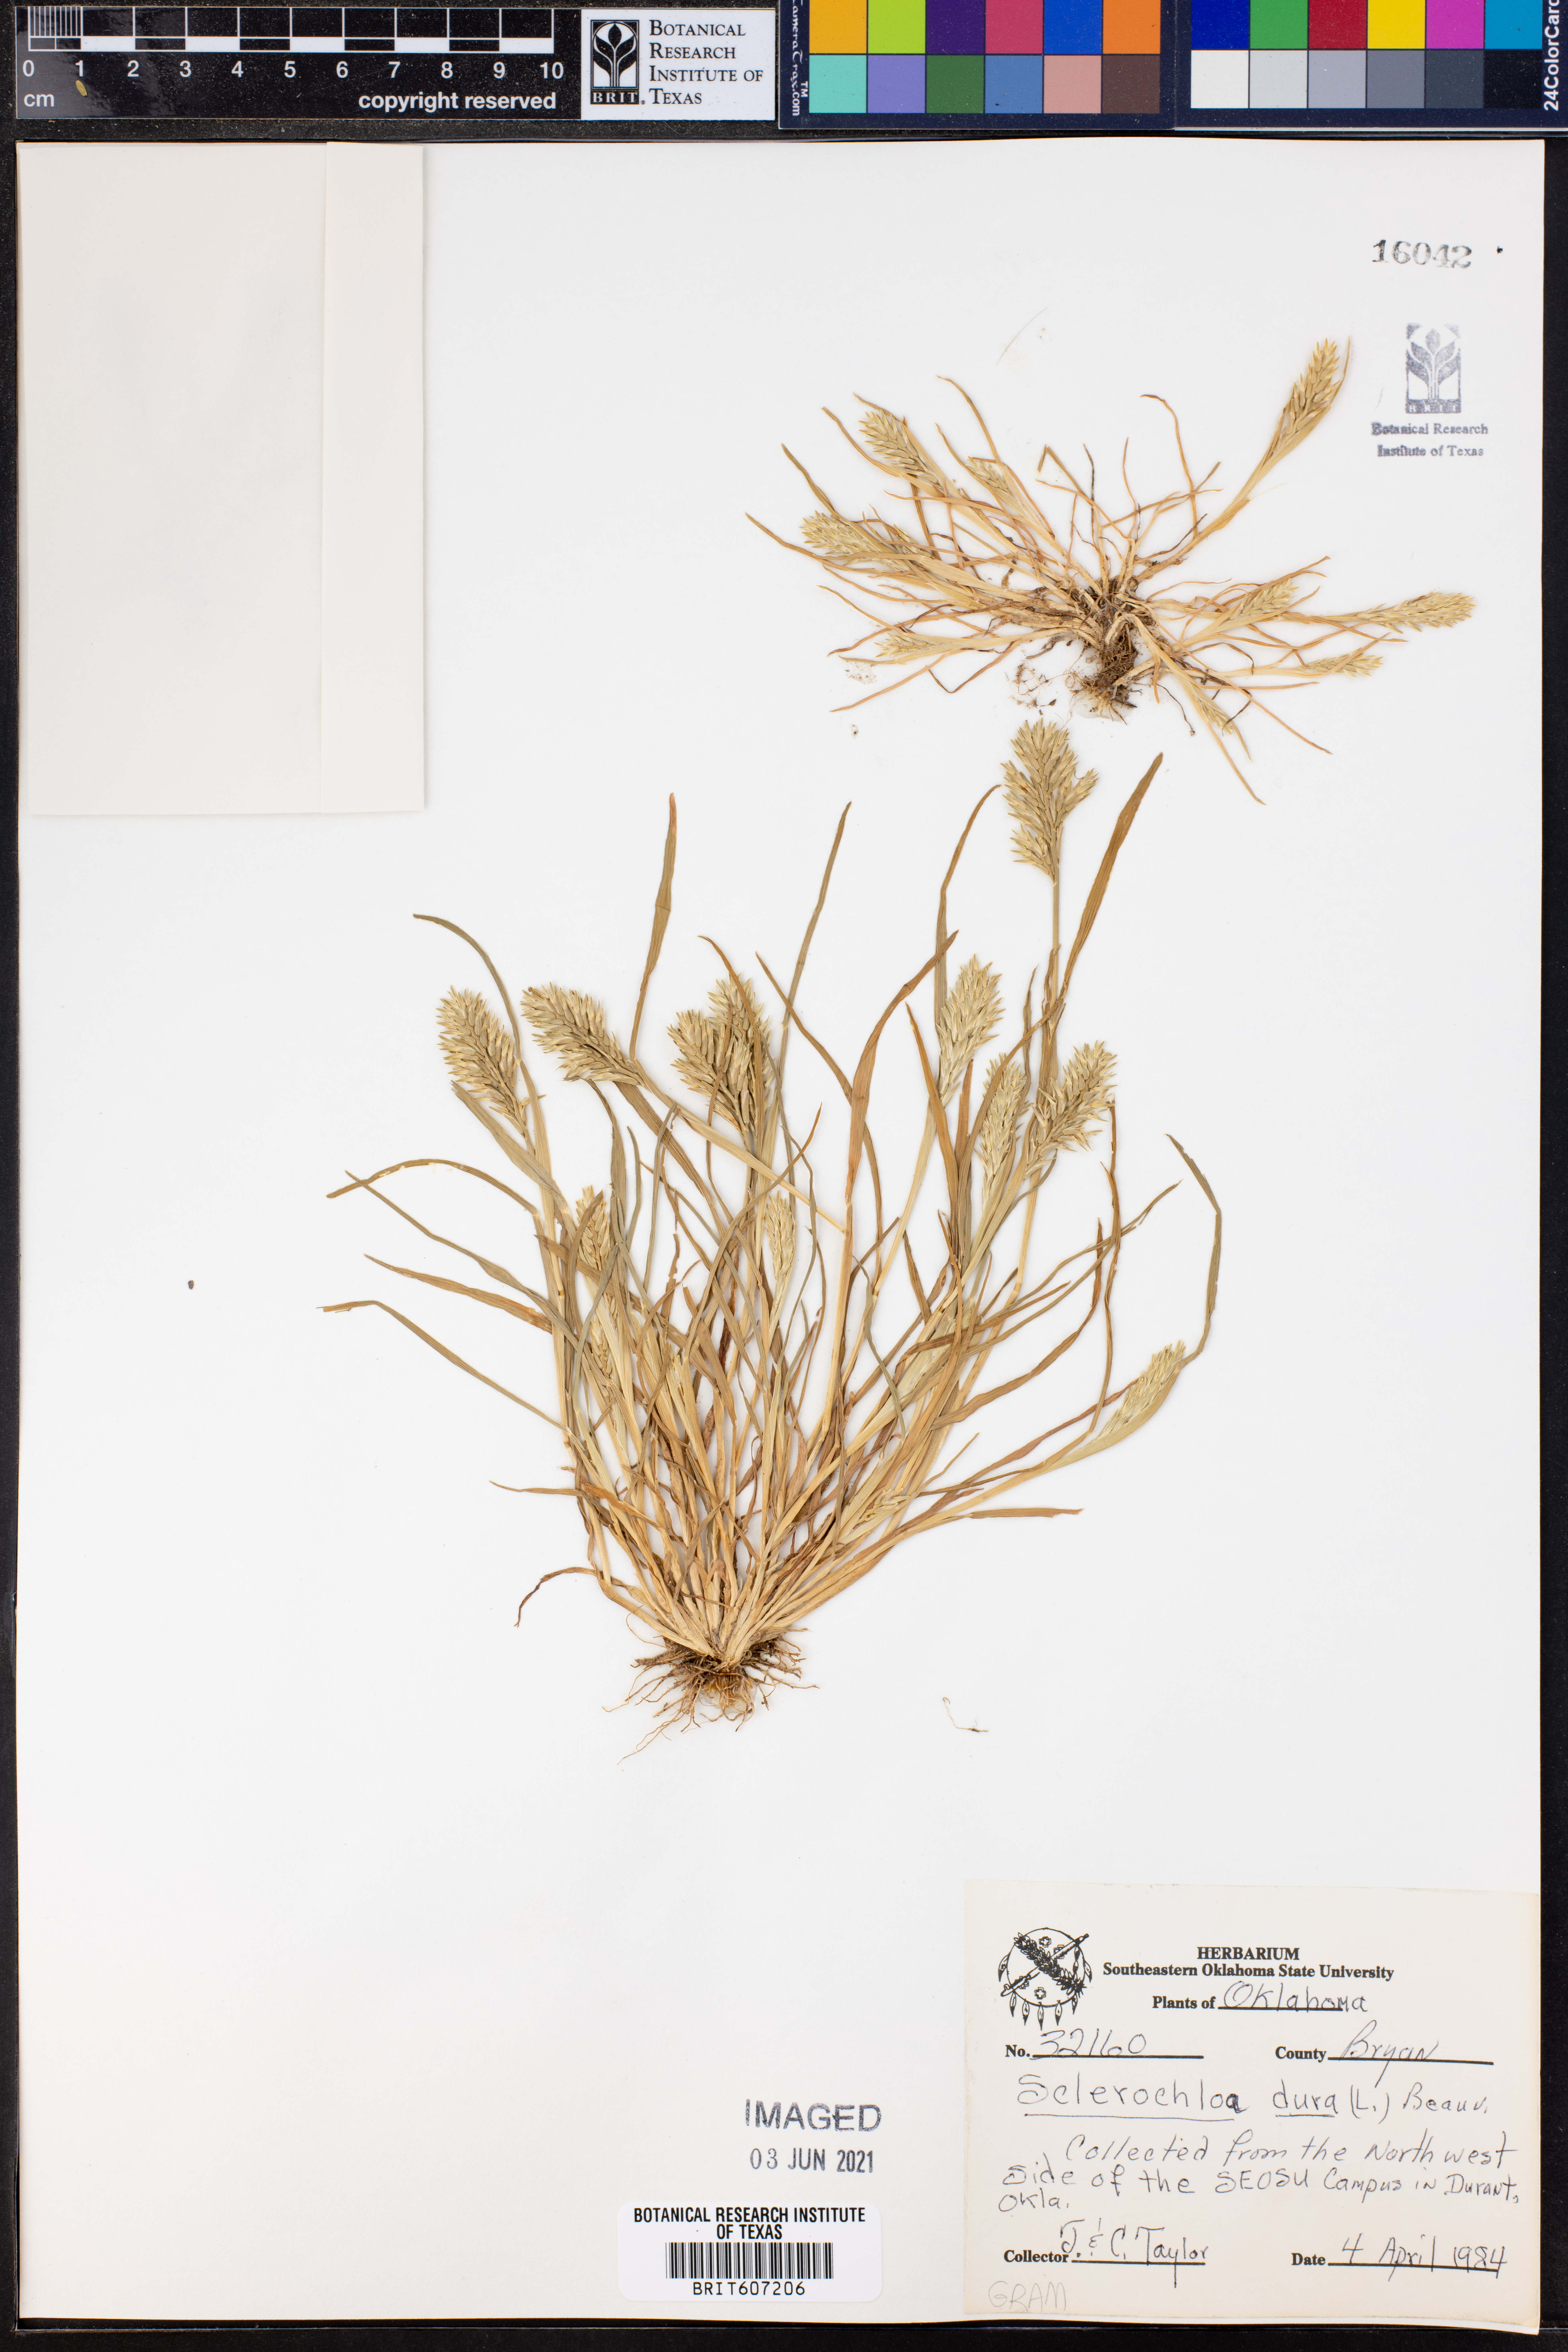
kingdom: Plantae
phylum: Tracheophyta
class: Liliopsida
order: Poales
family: Poaceae
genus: Sclerochloa
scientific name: Sclerochloa dura
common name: Common hardgrass
